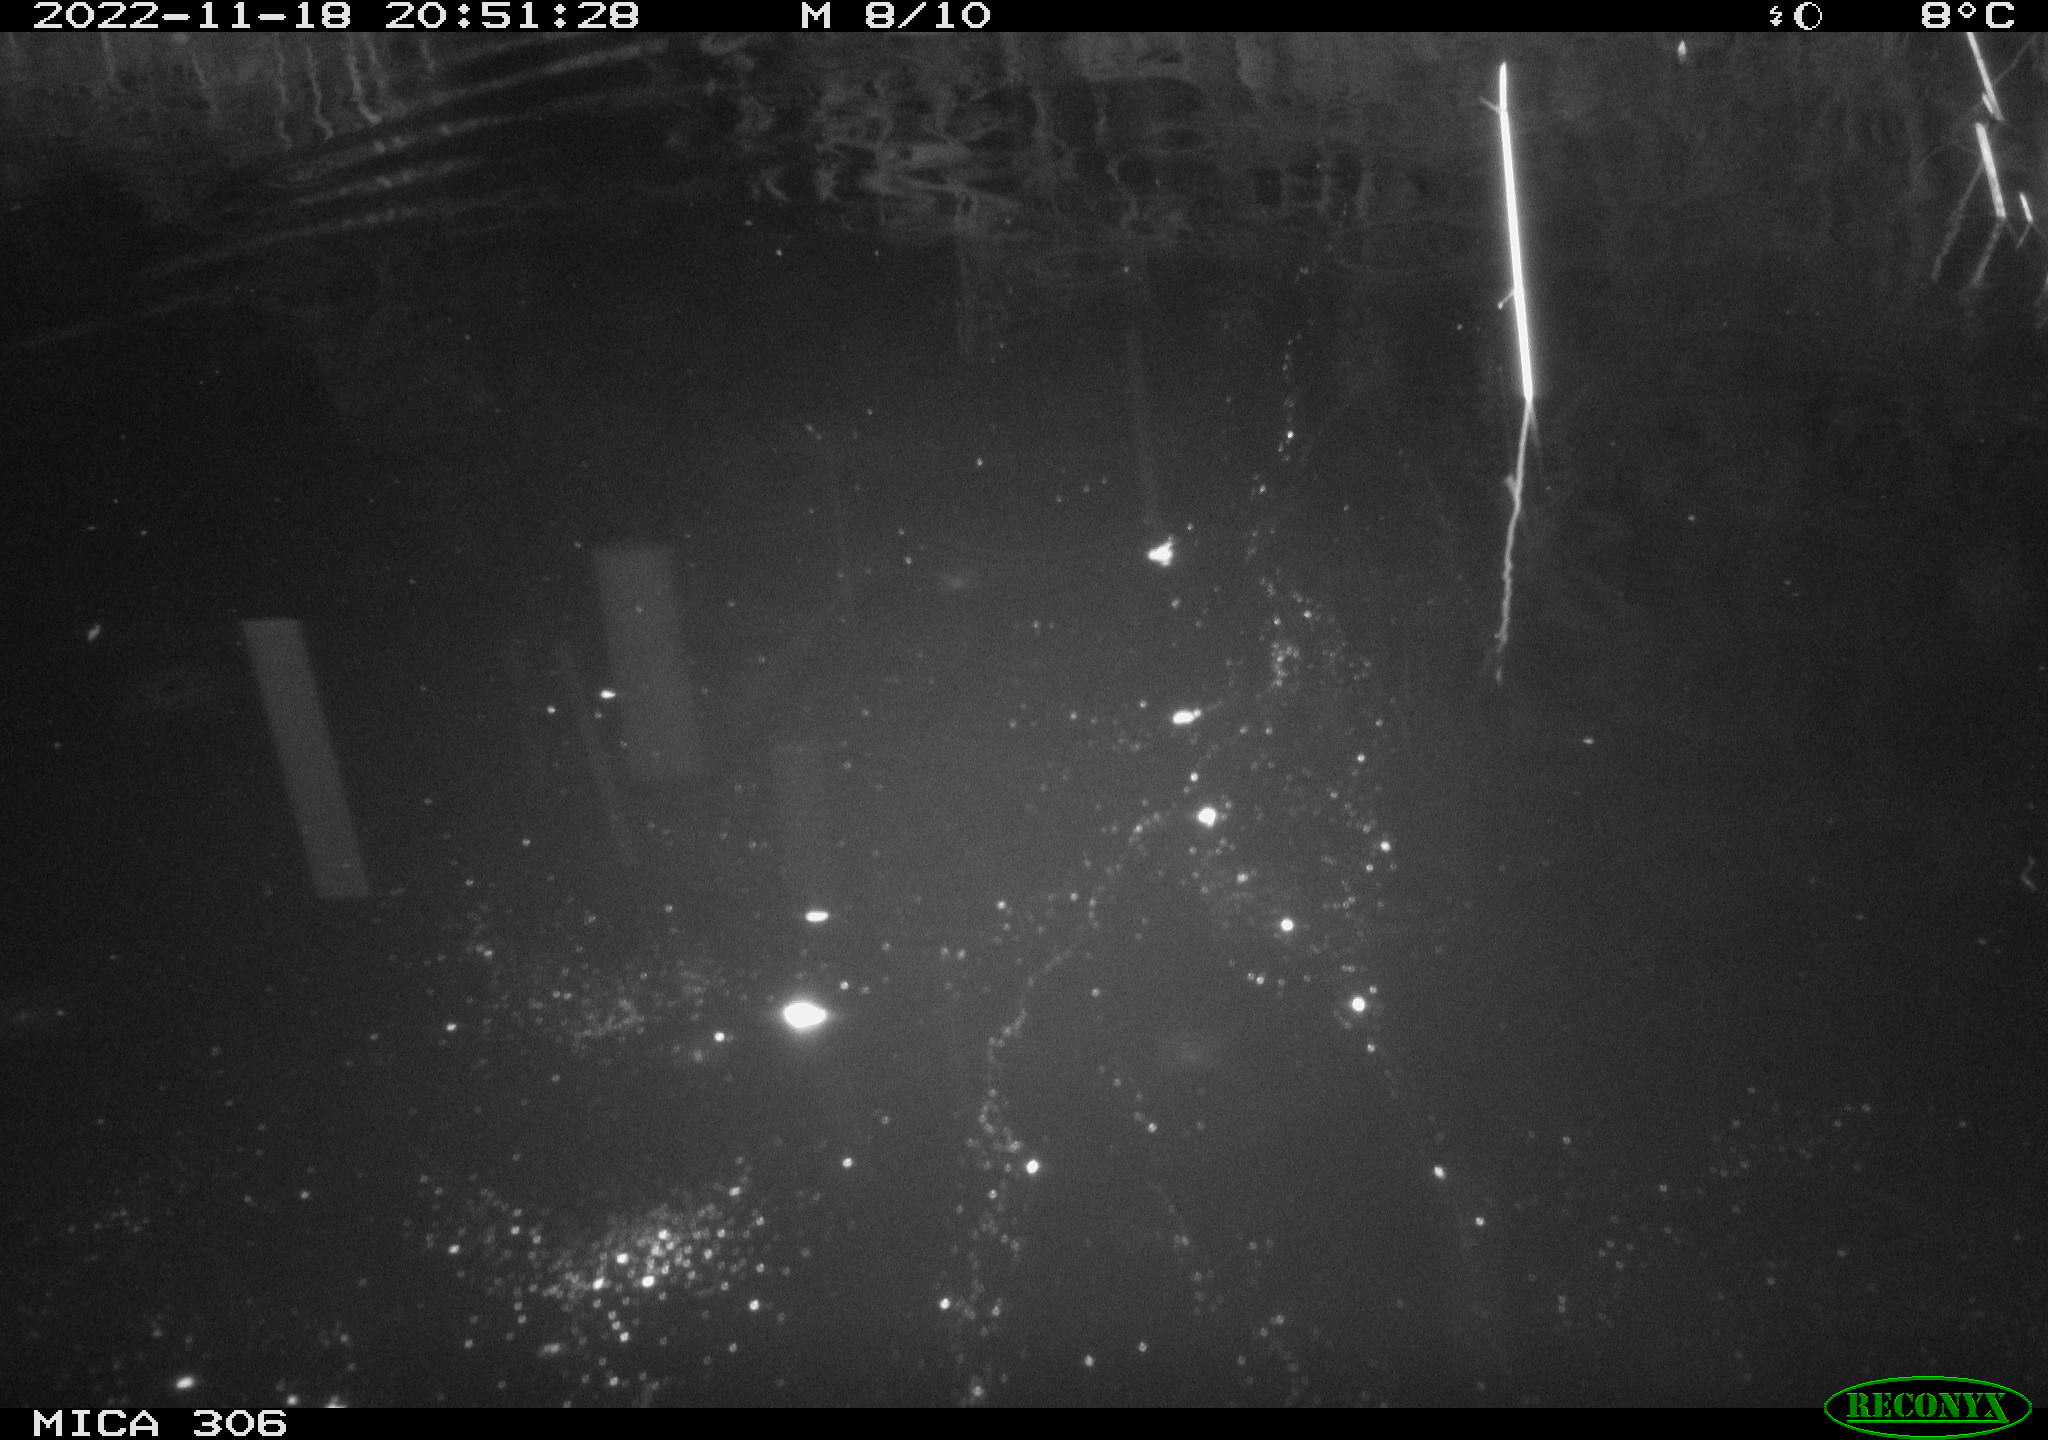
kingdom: Animalia
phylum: Chordata
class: Mammalia
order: Rodentia
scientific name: Rodentia
